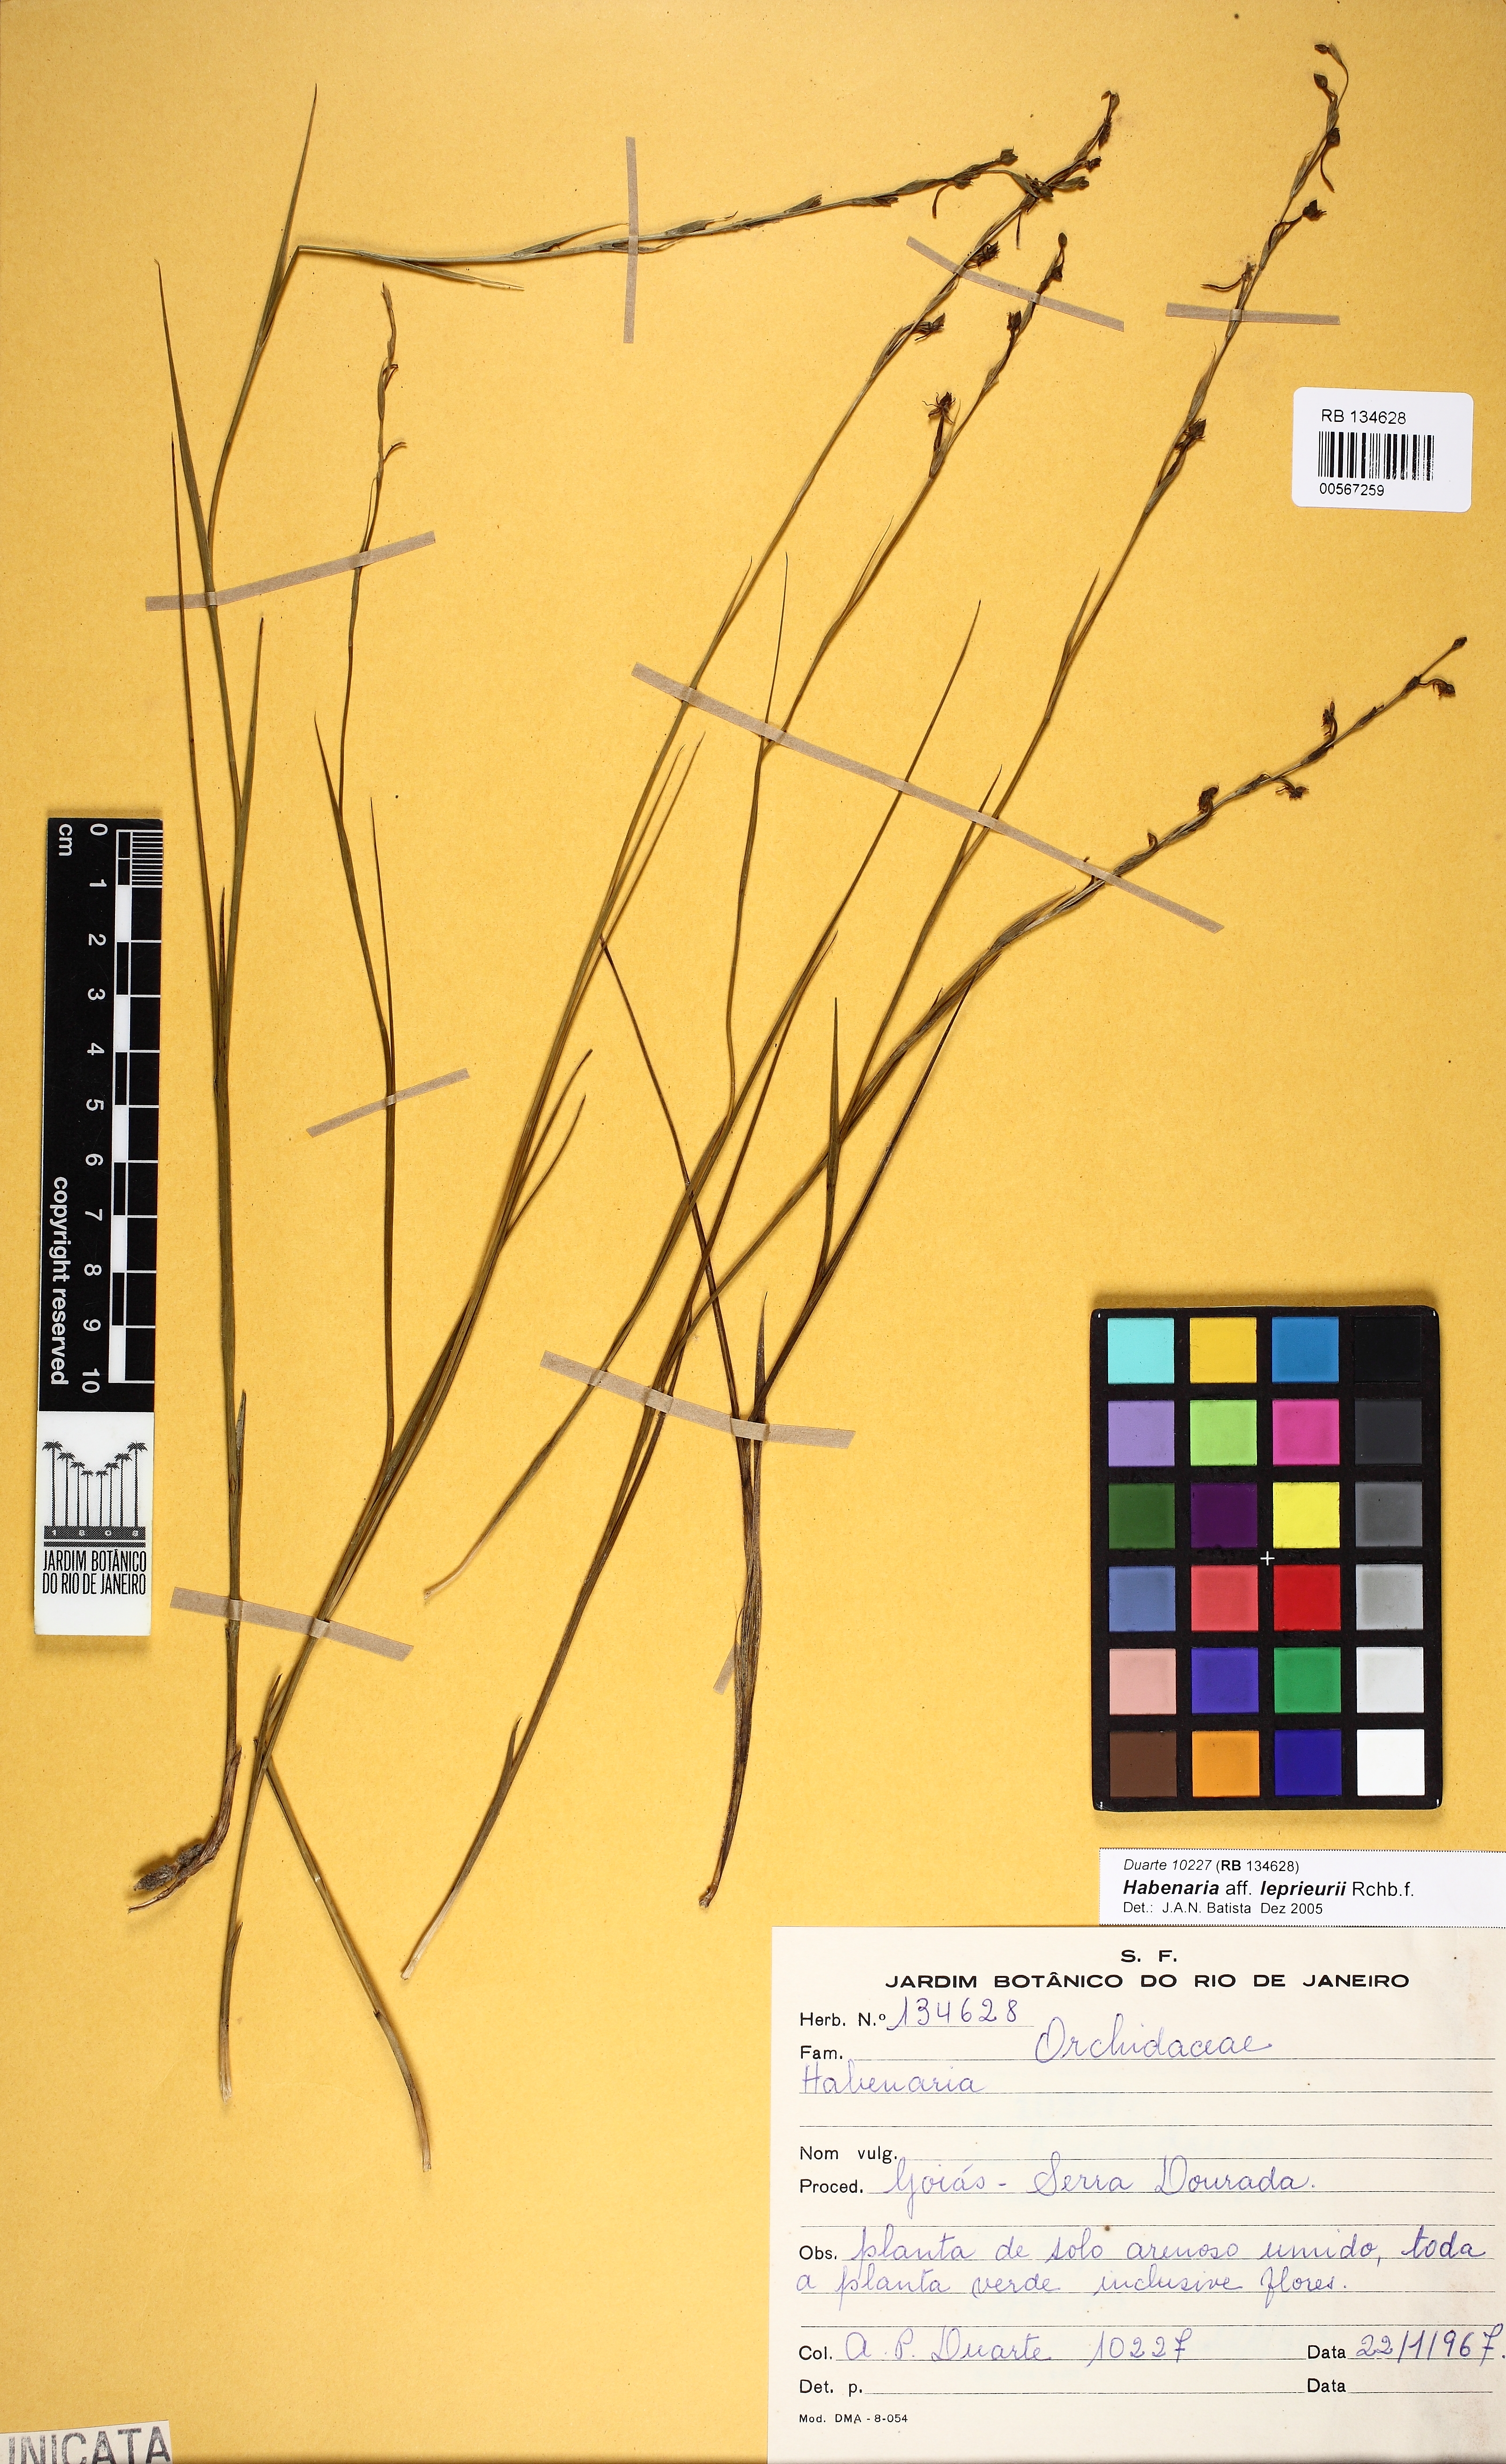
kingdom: Plantae
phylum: Tracheophyta
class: Liliopsida
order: Asparagales
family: Orchidaceae
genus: Habenaria
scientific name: Habenaria leprieurii
